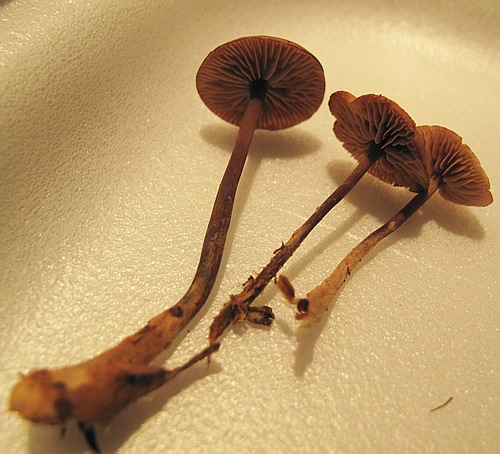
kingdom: Fungi
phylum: Basidiomycota
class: Agaricomycetes
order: Agaricales
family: Omphalotaceae
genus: Gymnopus
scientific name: Gymnopus fuscopurpureus
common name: purpurbrun fladhat
